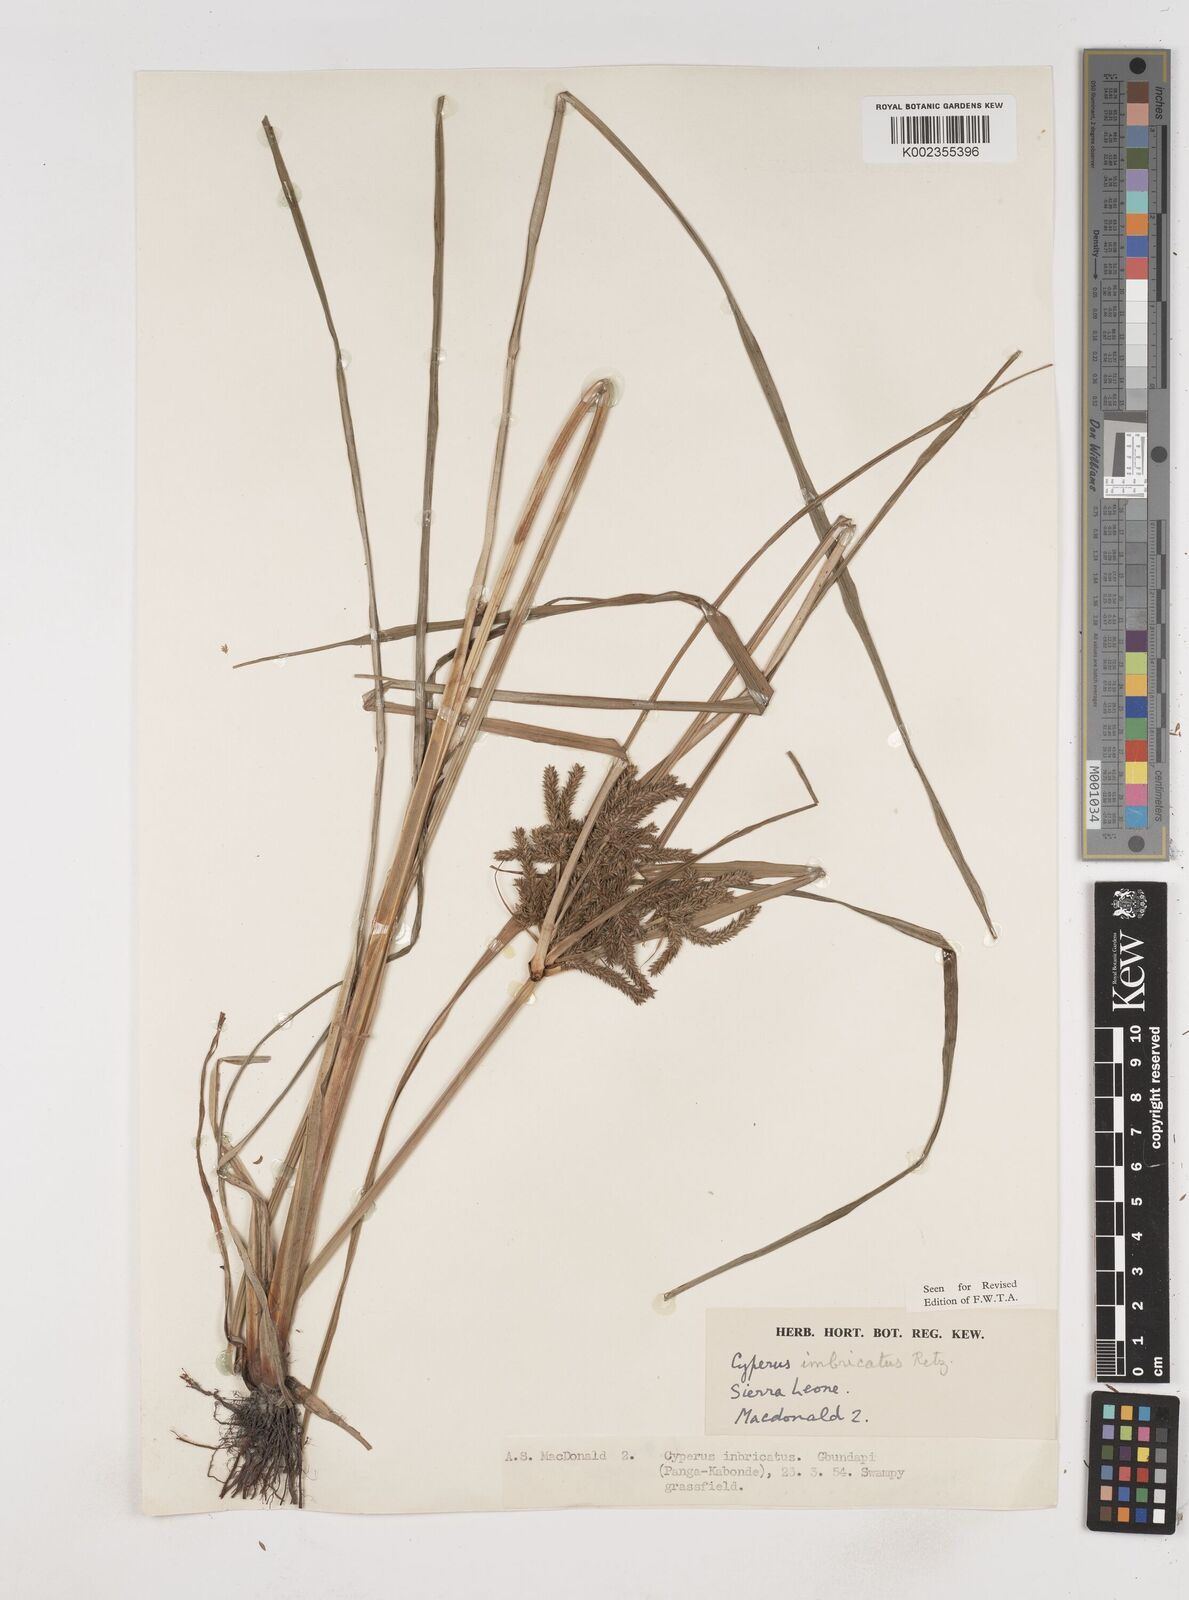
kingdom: Plantae
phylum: Tracheophyta
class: Liliopsida
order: Poales
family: Cyperaceae
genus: Cyperus
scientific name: Cyperus imbricatus
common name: Shingle flatsedge
